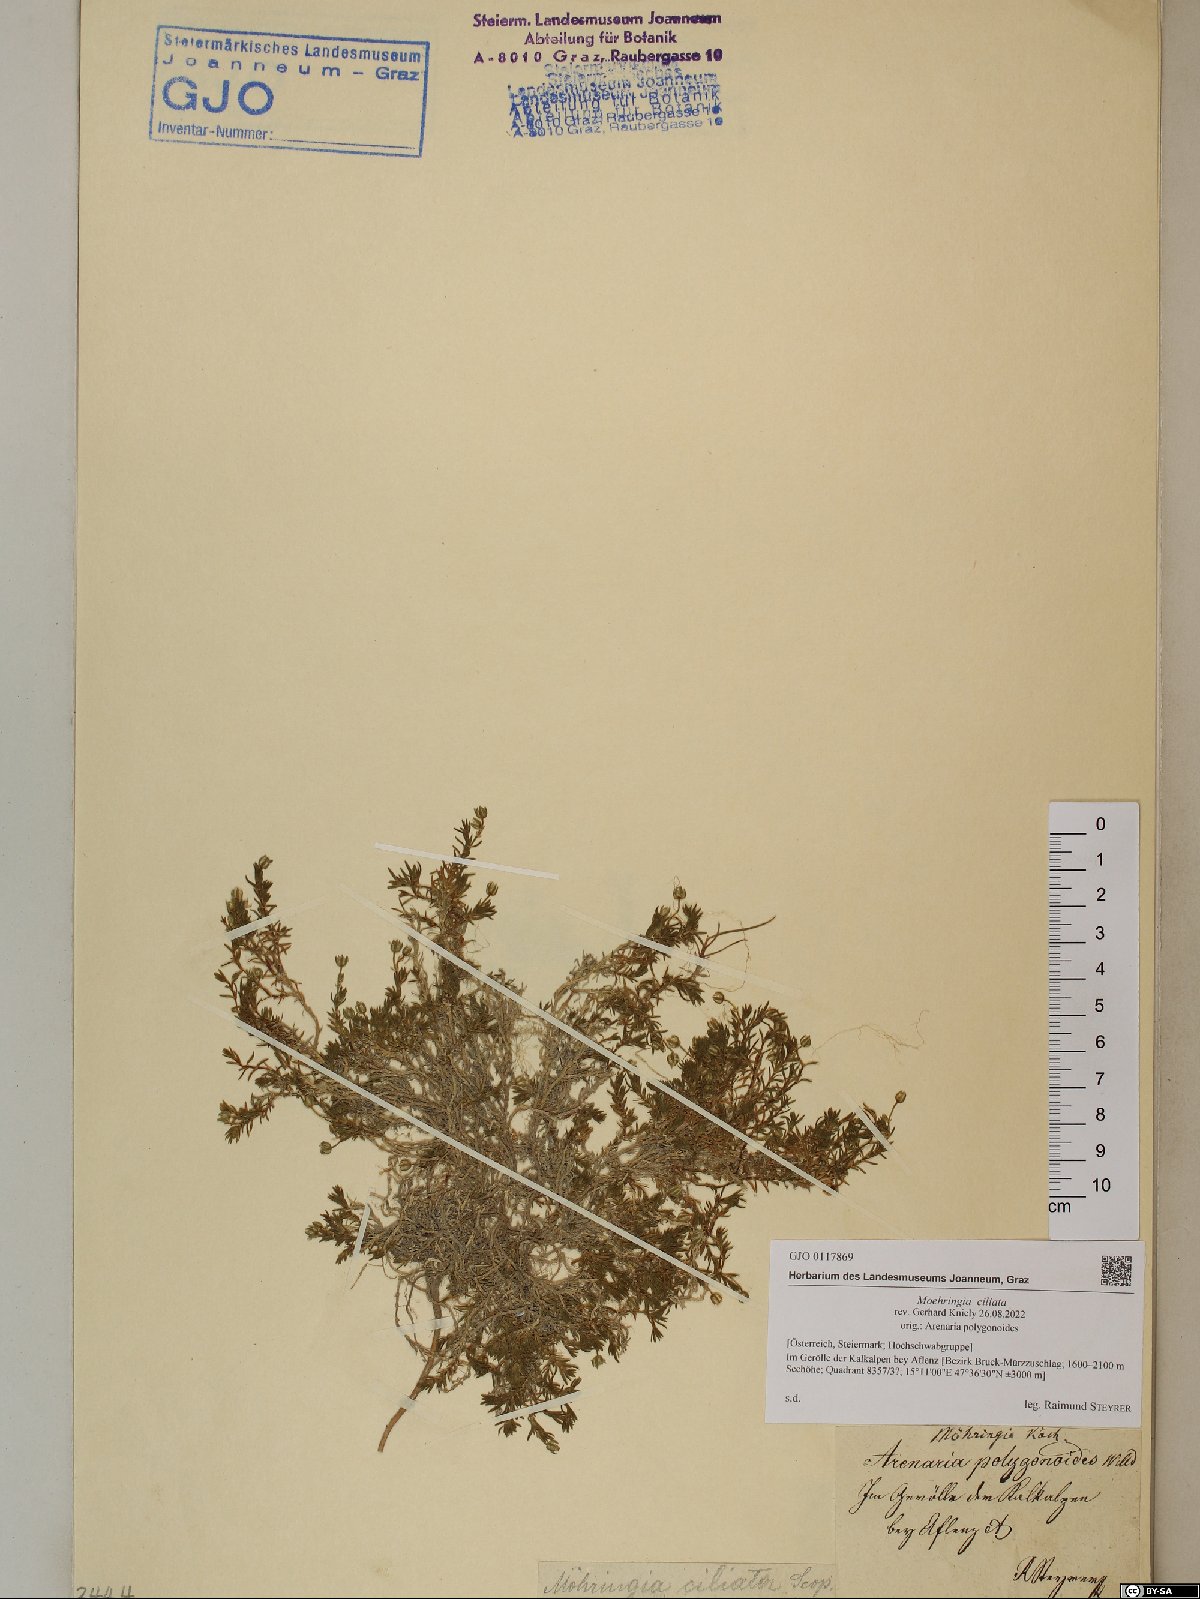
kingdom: Plantae
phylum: Tracheophyta
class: Magnoliopsida
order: Caryophyllales
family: Caryophyllaceae
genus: Moehringia
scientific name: Moehringia ciliata
